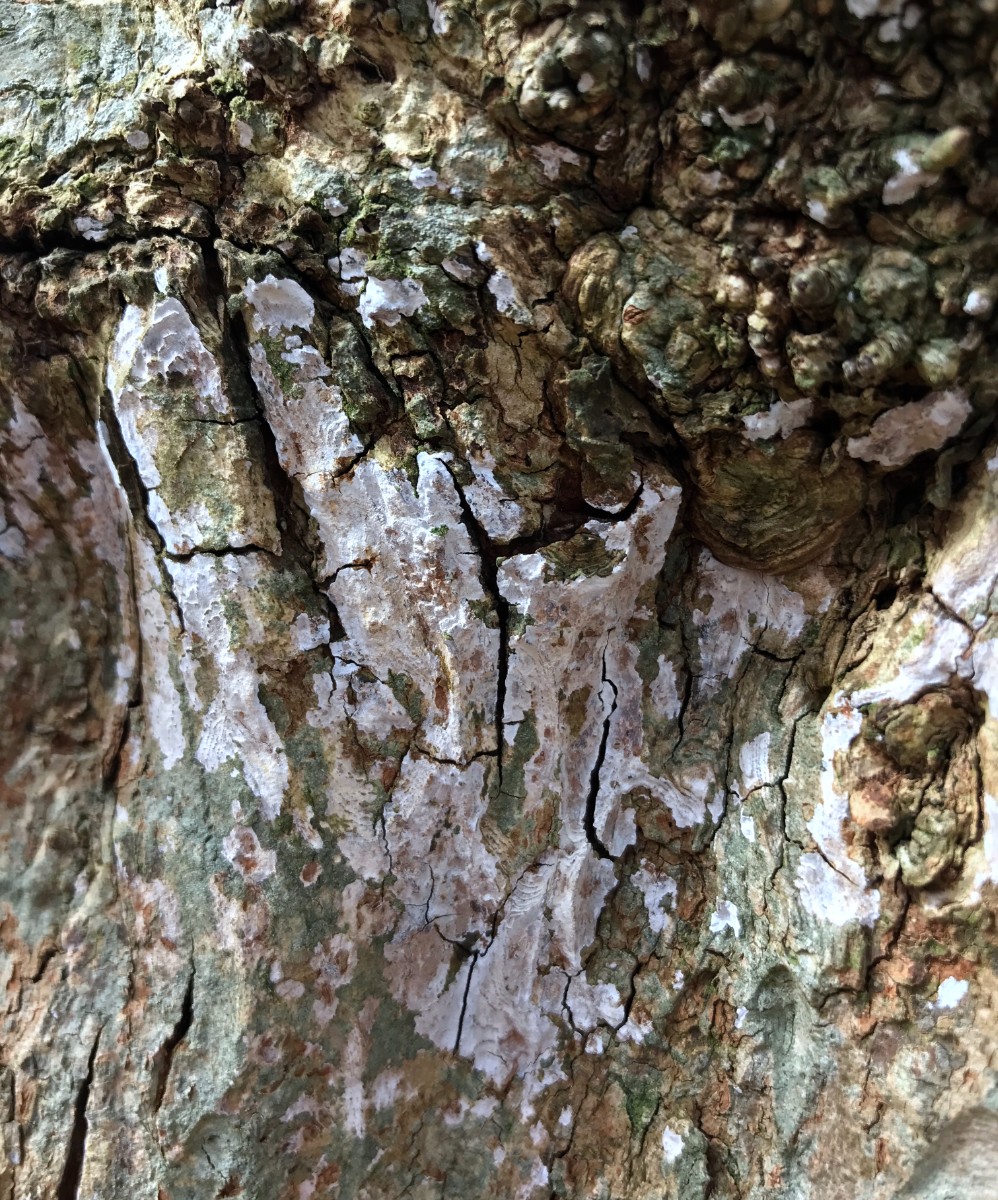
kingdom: Fungi
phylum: Basidiomycota
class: Agaricomycetes
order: Agaricales
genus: Dendrothele
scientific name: Dendrothele acerina
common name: navr-kalkplet
